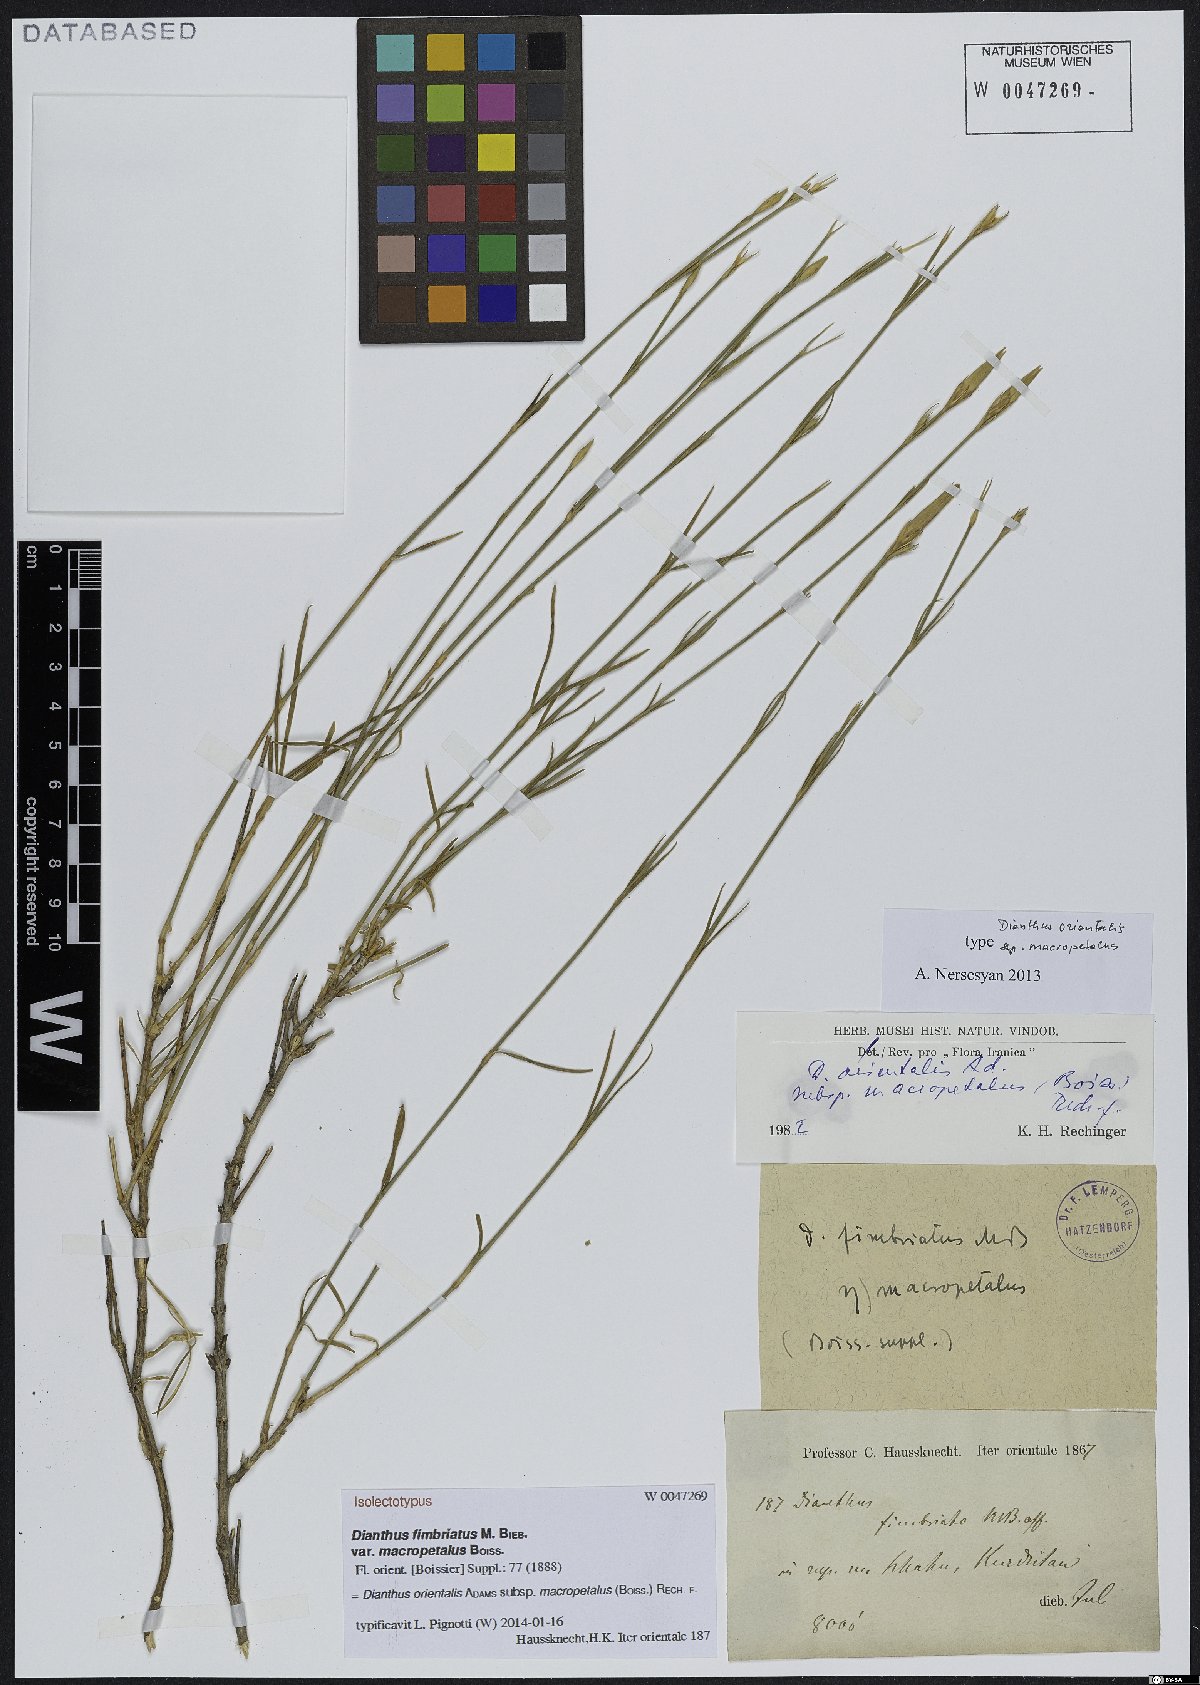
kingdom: Plantae
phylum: Tracheophyta
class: Magnoliopsida
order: Caryophyllales
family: Caryophyllaceae
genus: Dianthus
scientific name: Dianthus orientalis
